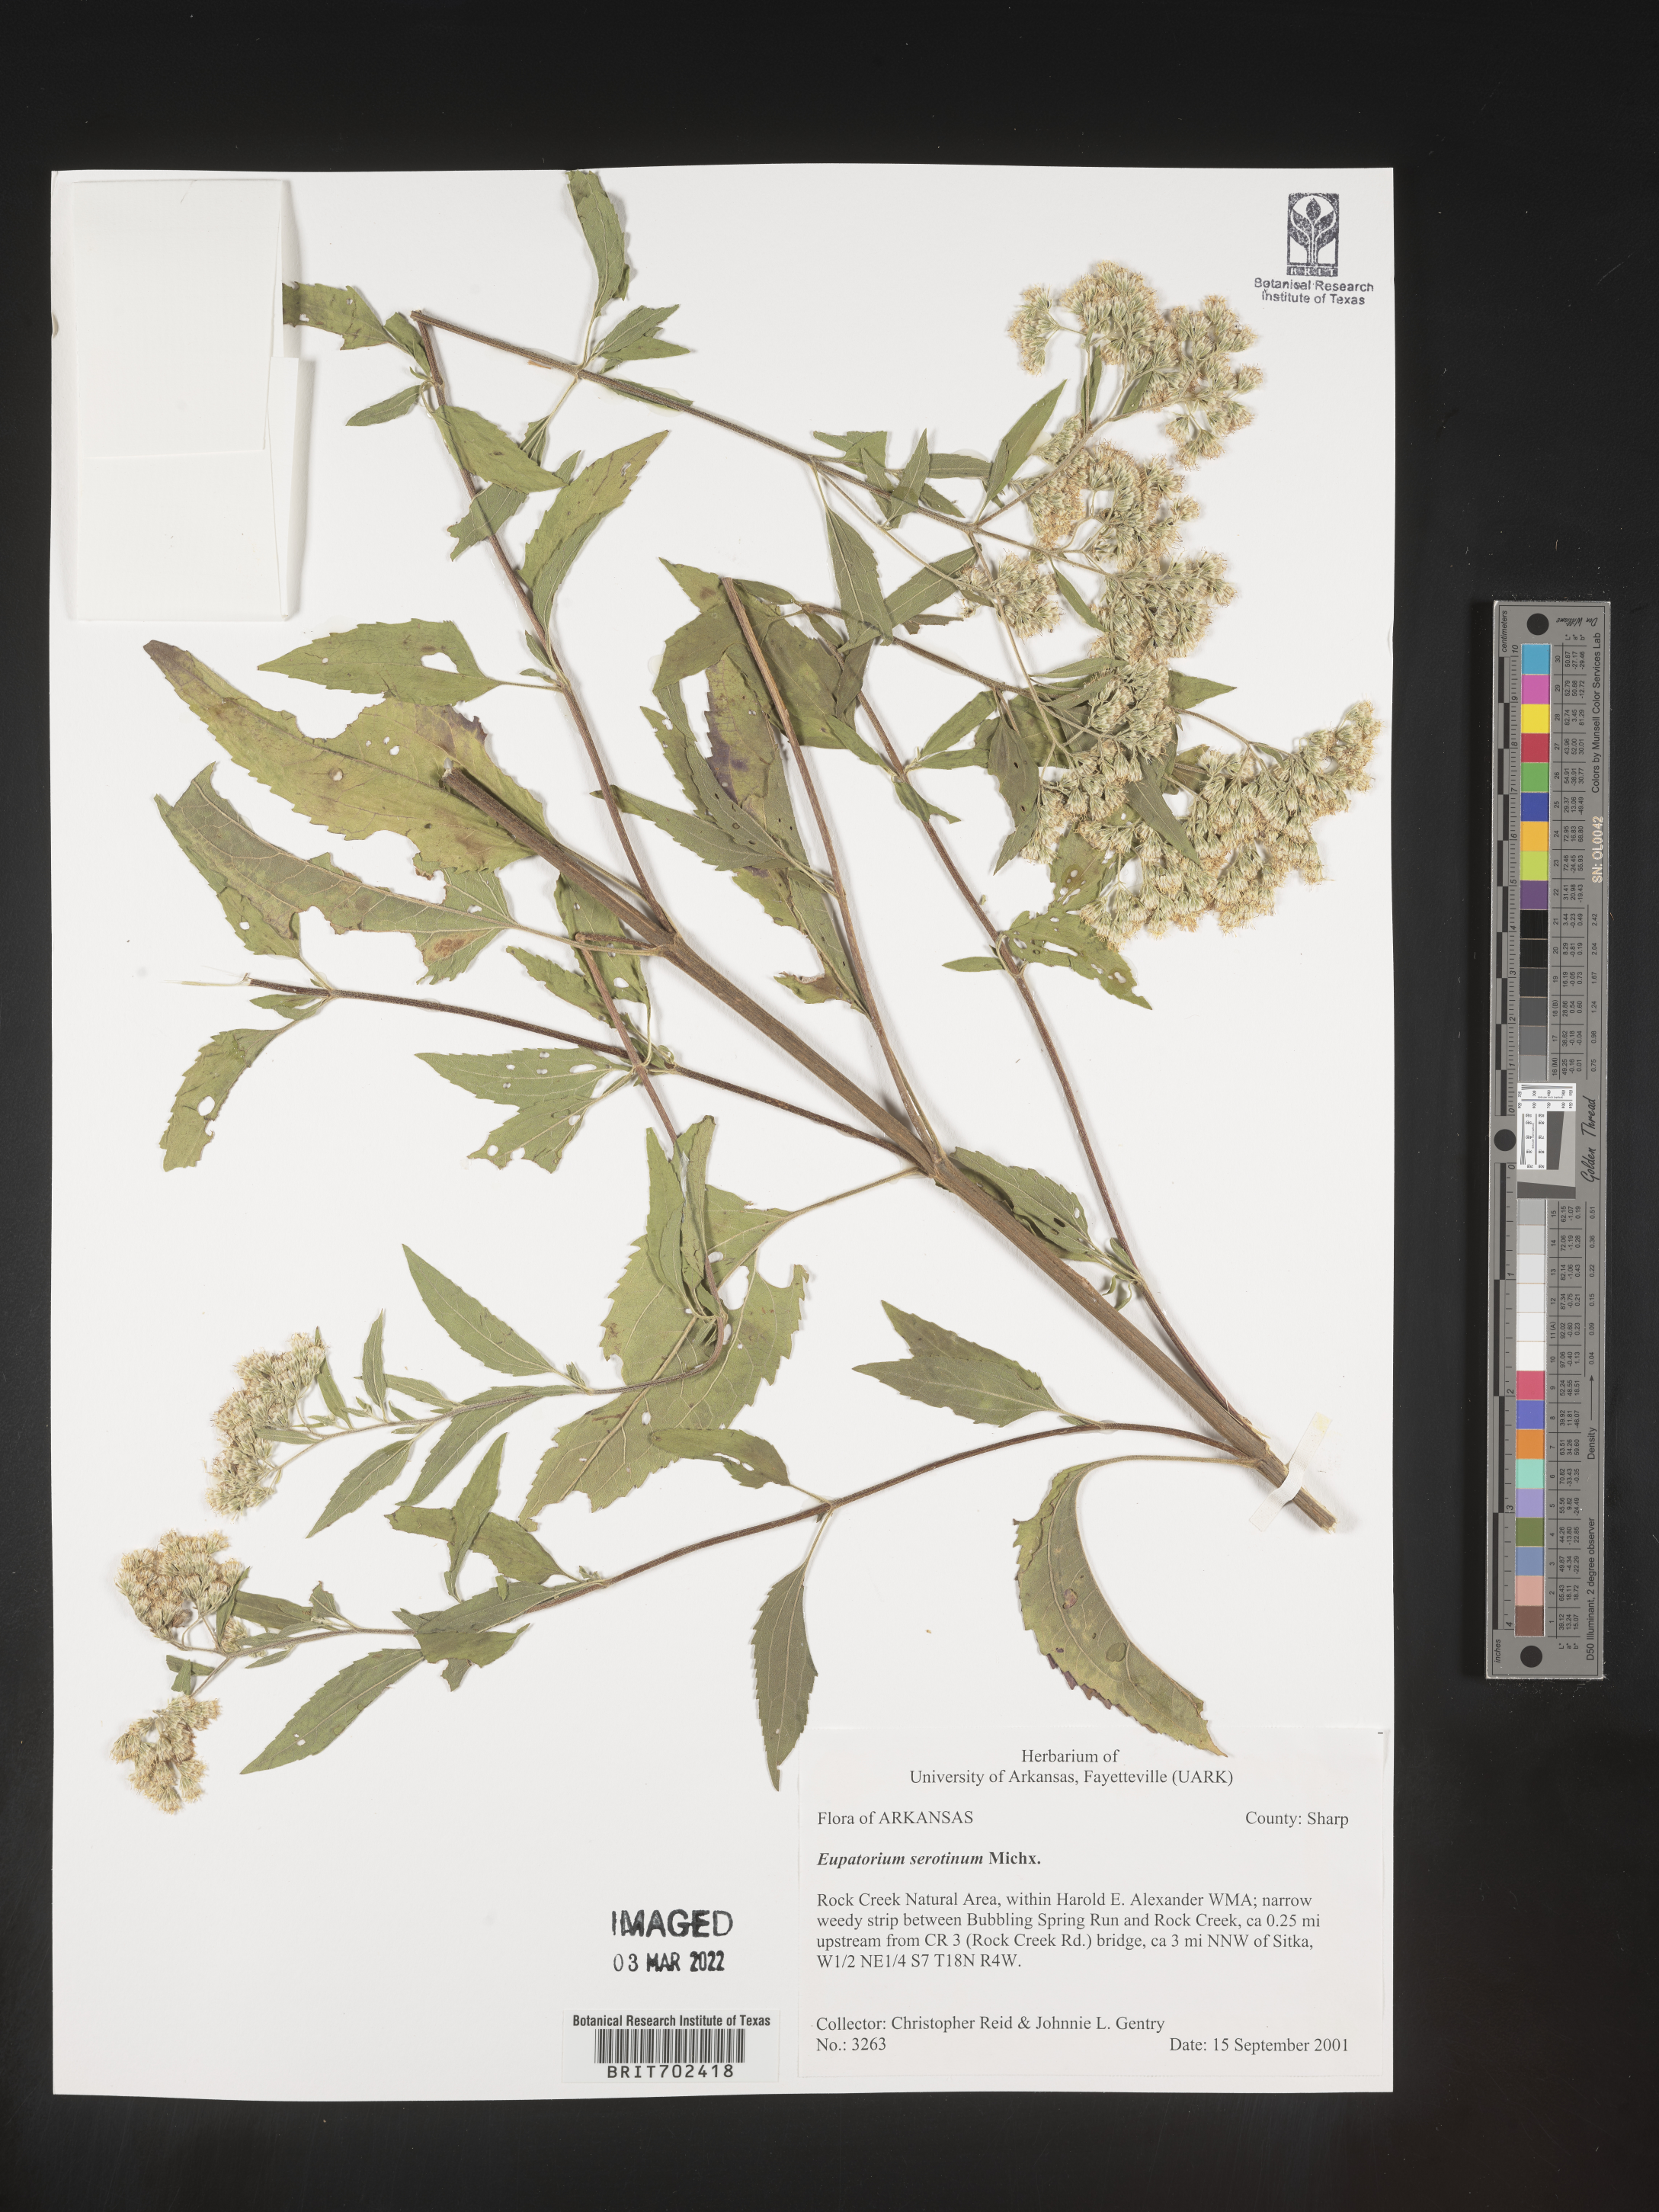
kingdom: Plantae
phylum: Tracheophyta
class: Magnoliopsida
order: Asterales
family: Asteraceae
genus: Eupatorium
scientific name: Eupatorium serotinum
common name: Late boneset
